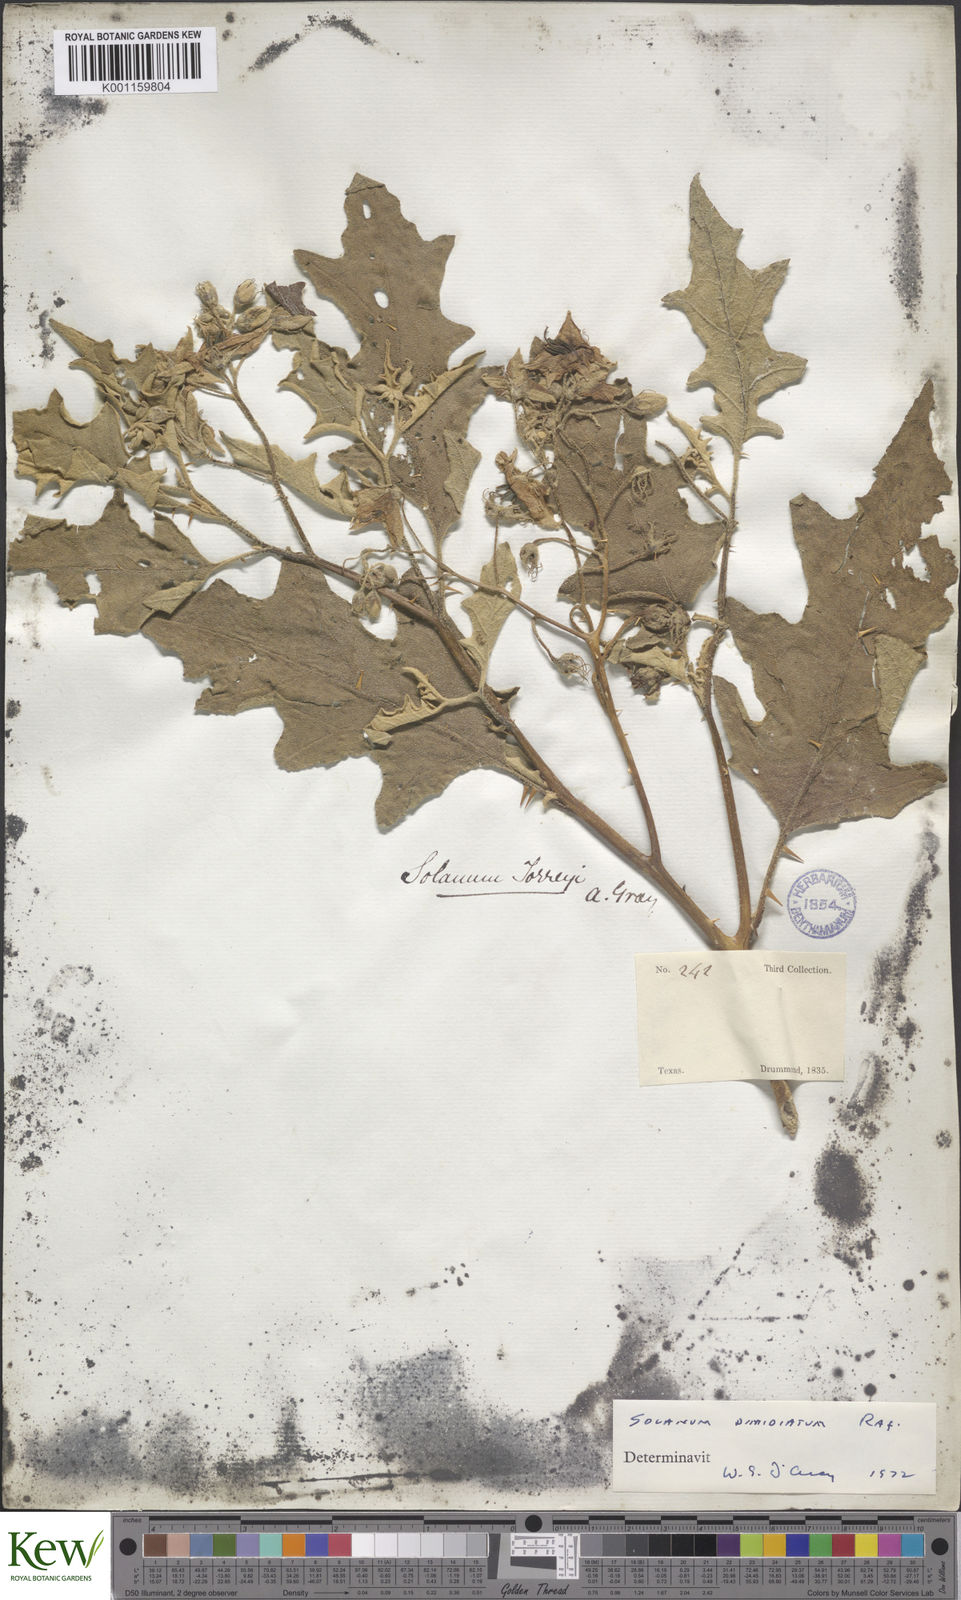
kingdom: Plantae
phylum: Tracheophyta
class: Magnoliopsida
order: Solanales
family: Solanaceae
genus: Solanum
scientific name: Solanum
